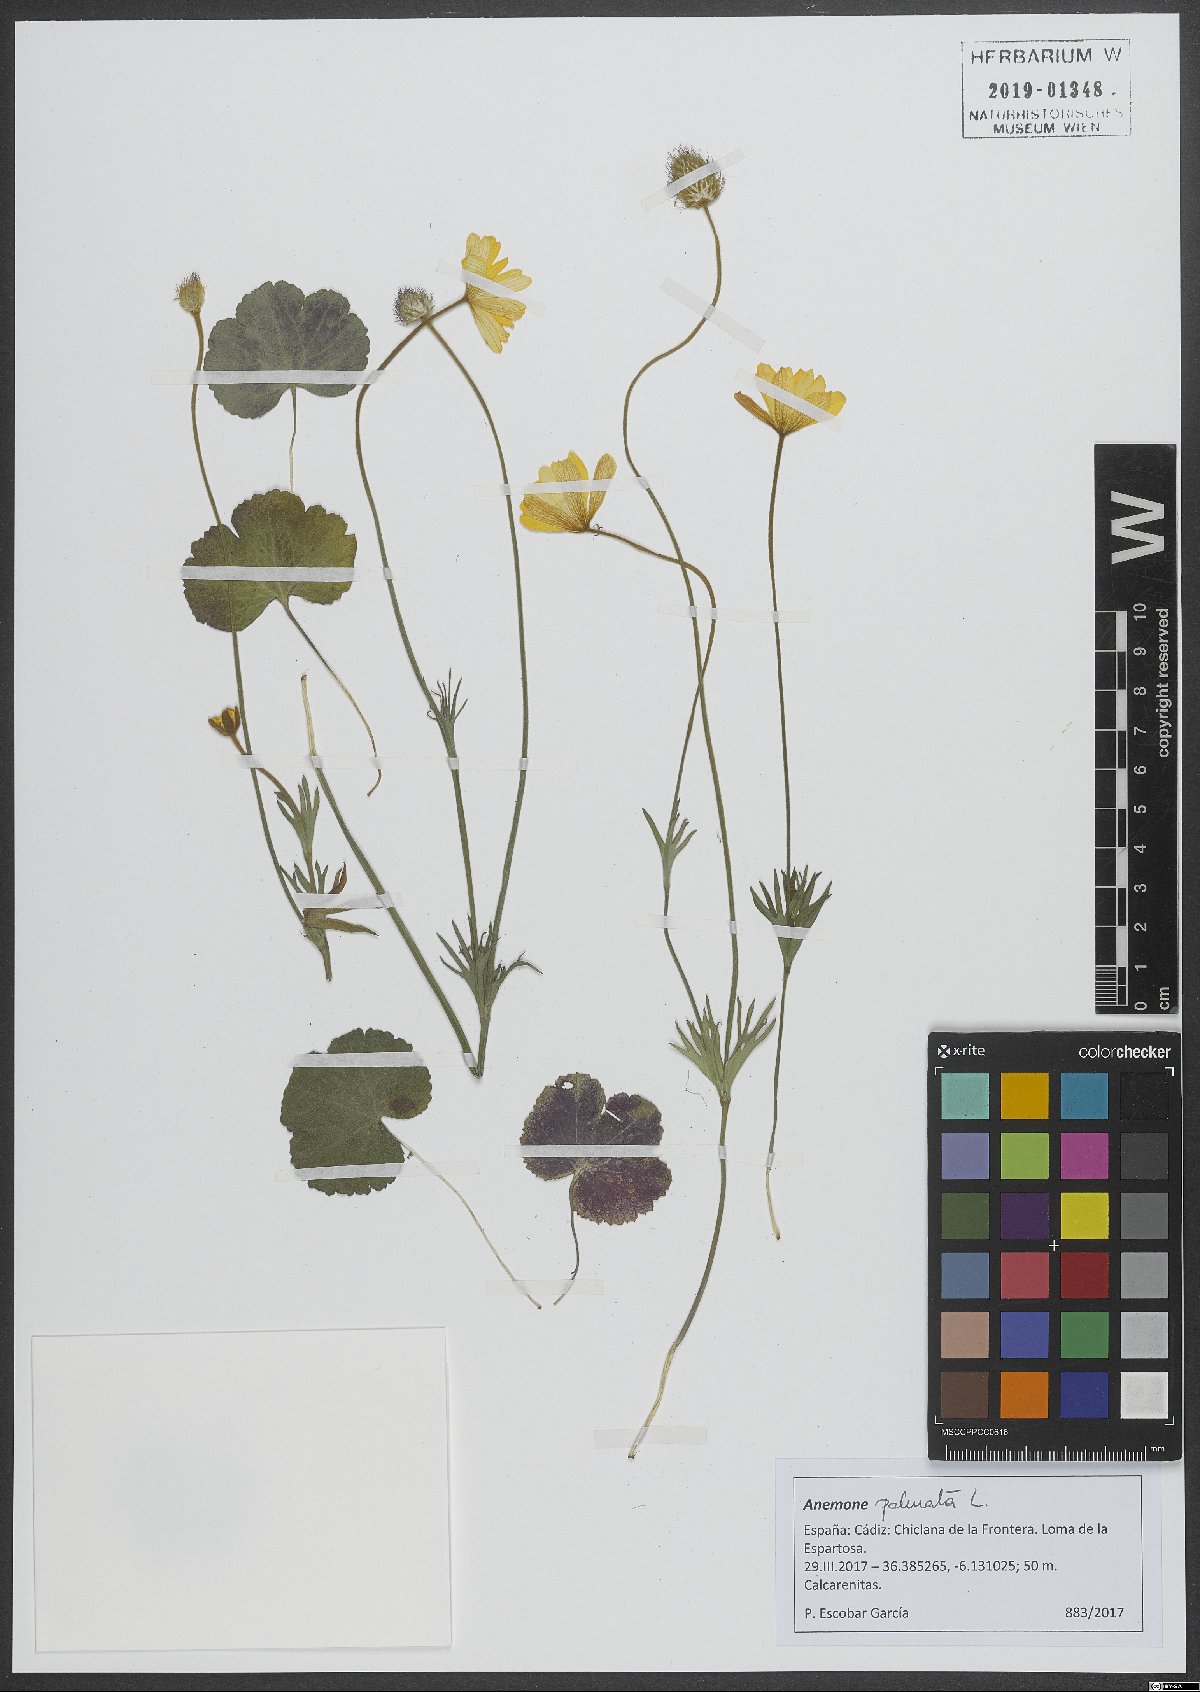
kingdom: Plantae
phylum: Tracheophyta
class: Magnoliopsida
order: Ranunculales
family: Ranunculaceae
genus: Anemone
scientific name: Anemone palmata
